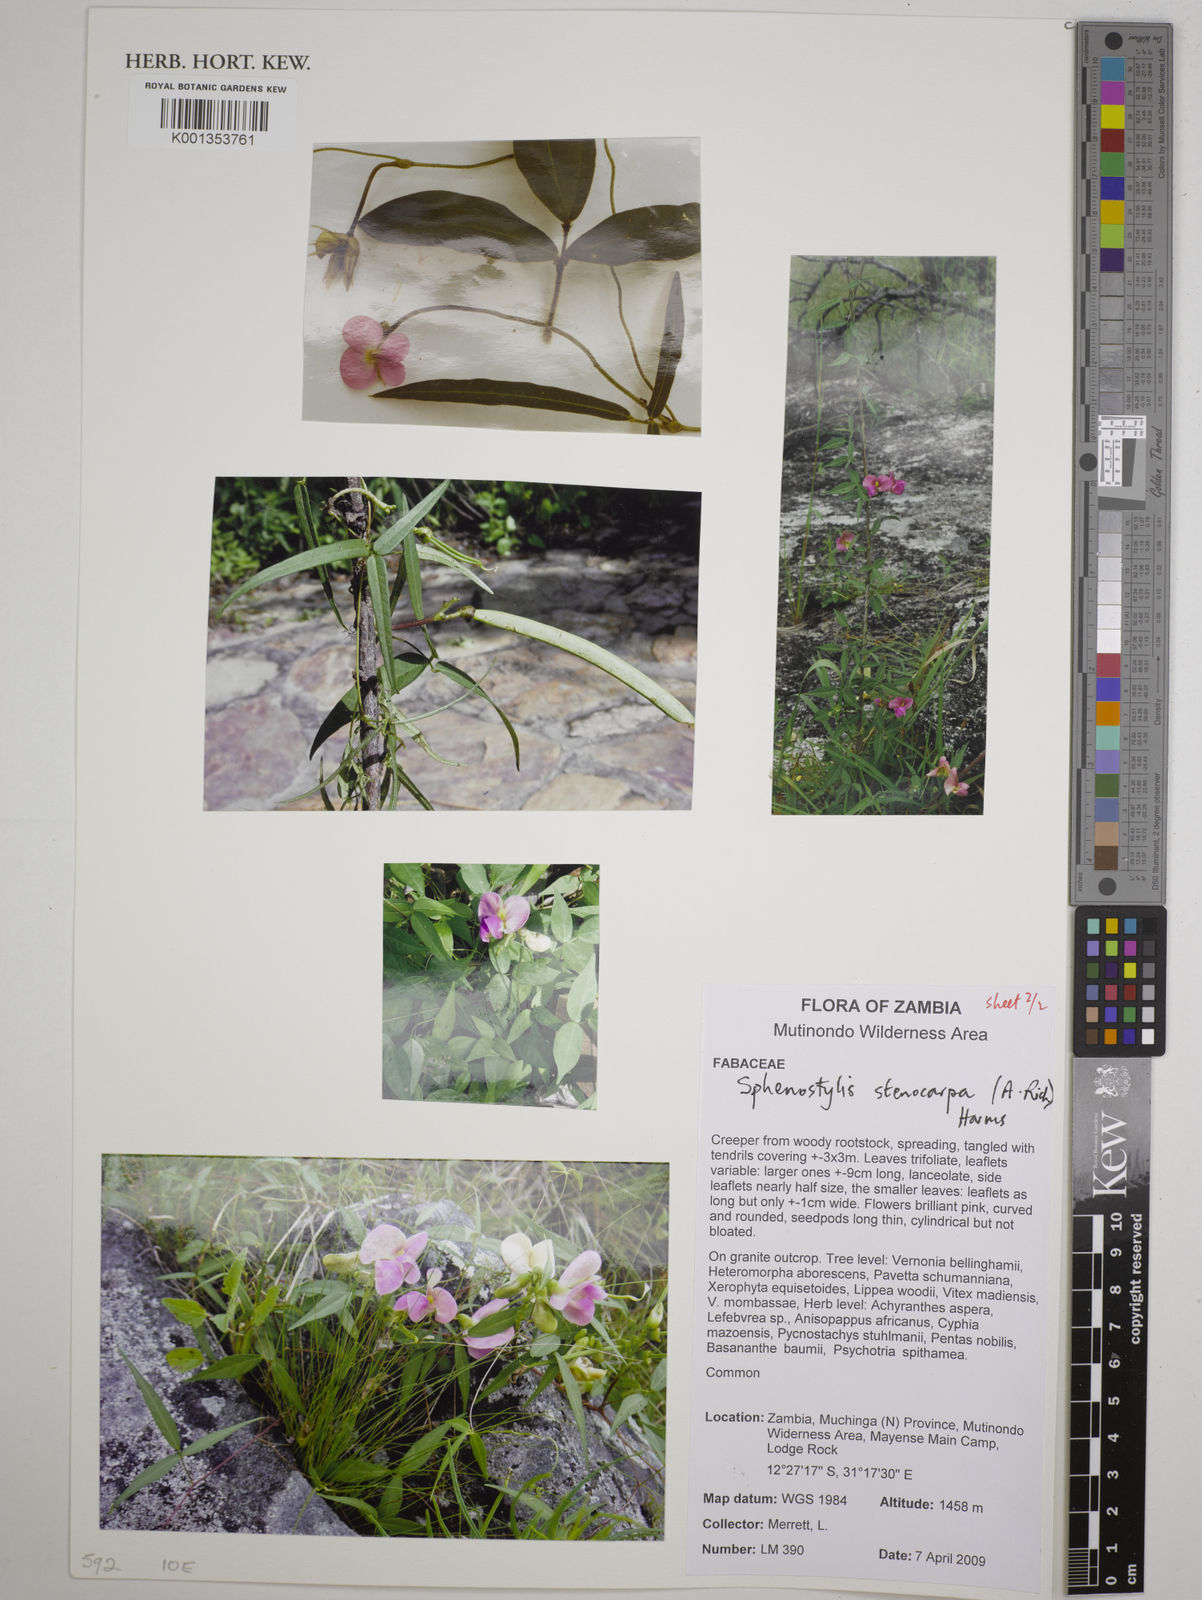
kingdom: Plantae
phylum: Tracheophyta
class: Magnoliopsida
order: Fabales
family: Fabaceae
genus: Sphenostylis
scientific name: Sphenostylis stenocarpa
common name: Yam-pea
